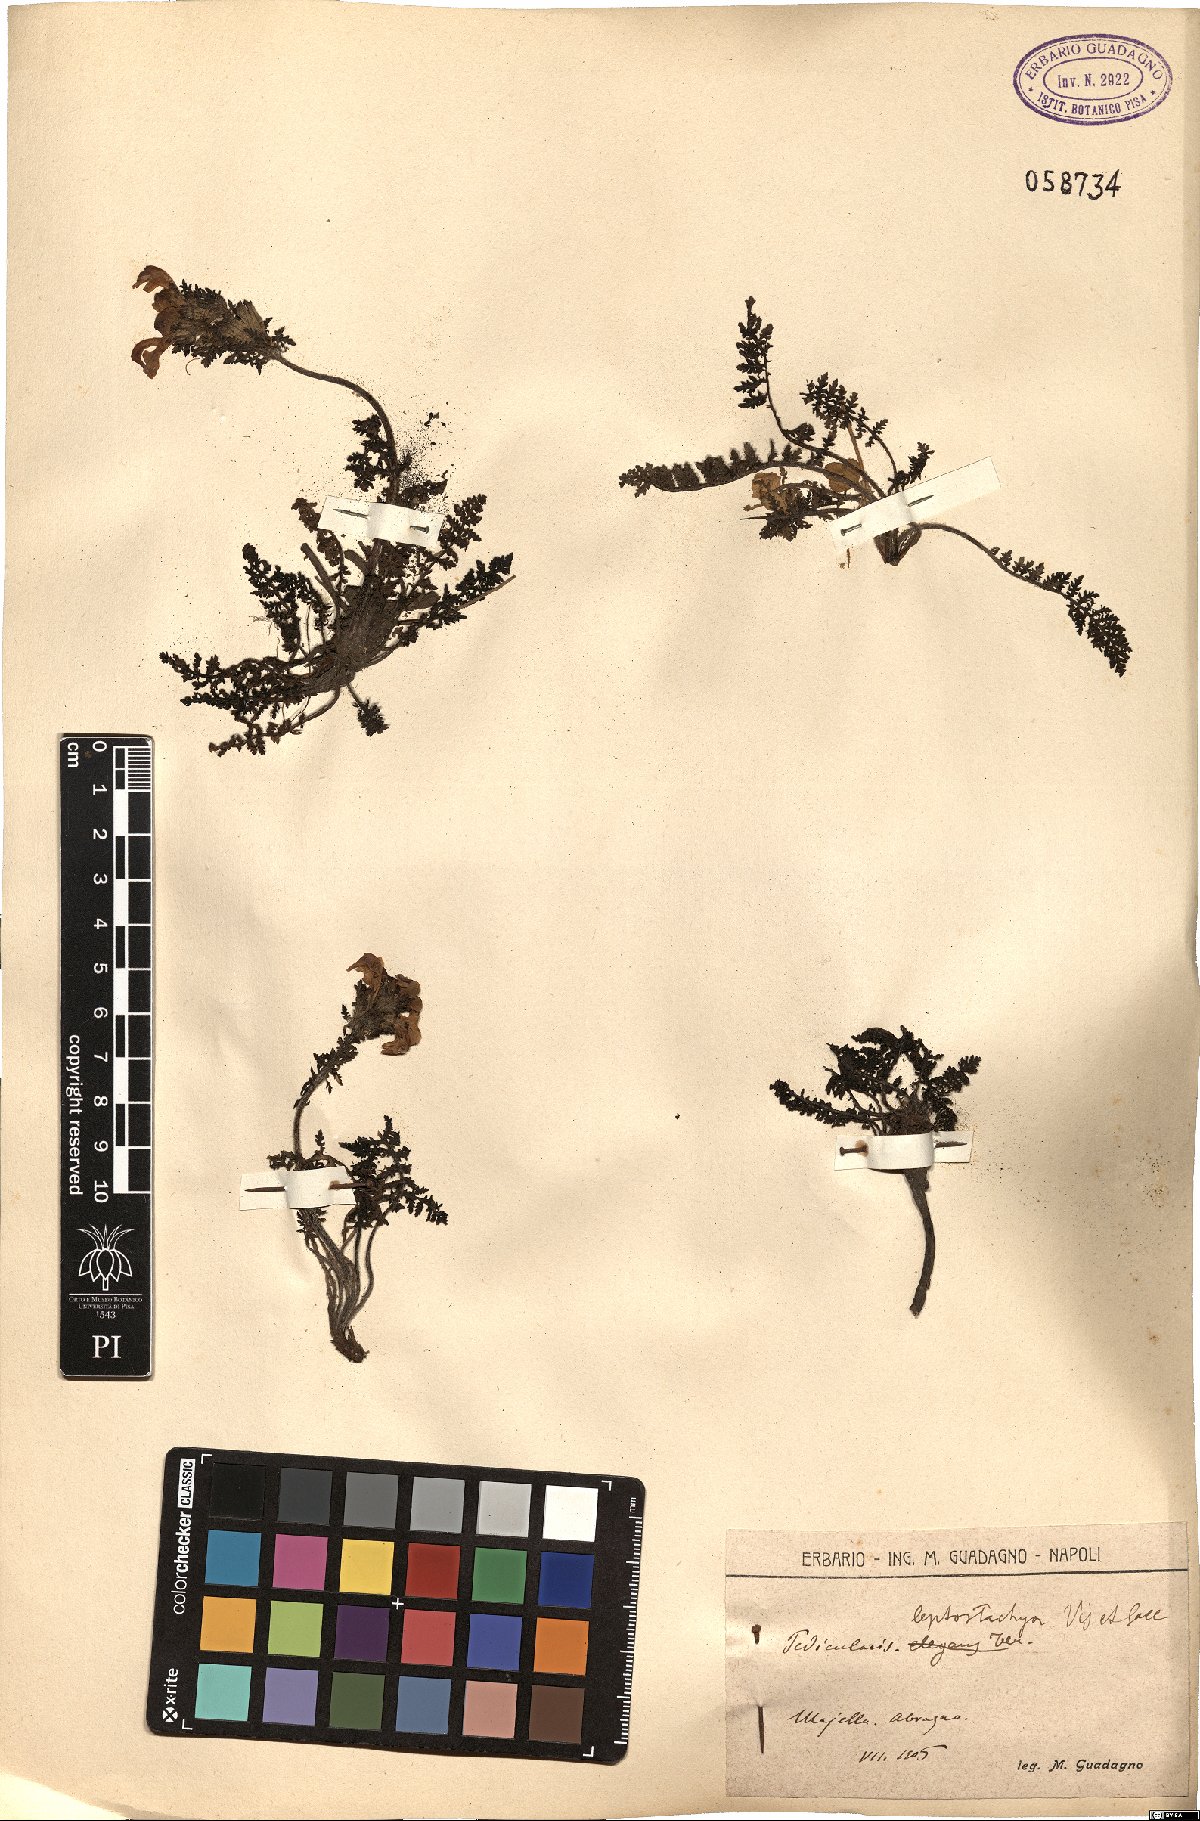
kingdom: Plantae
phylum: Tracheophyta
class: Magnoliopsida
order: Lamiales
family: Scrophulariaceae
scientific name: Scrophulariaceae
